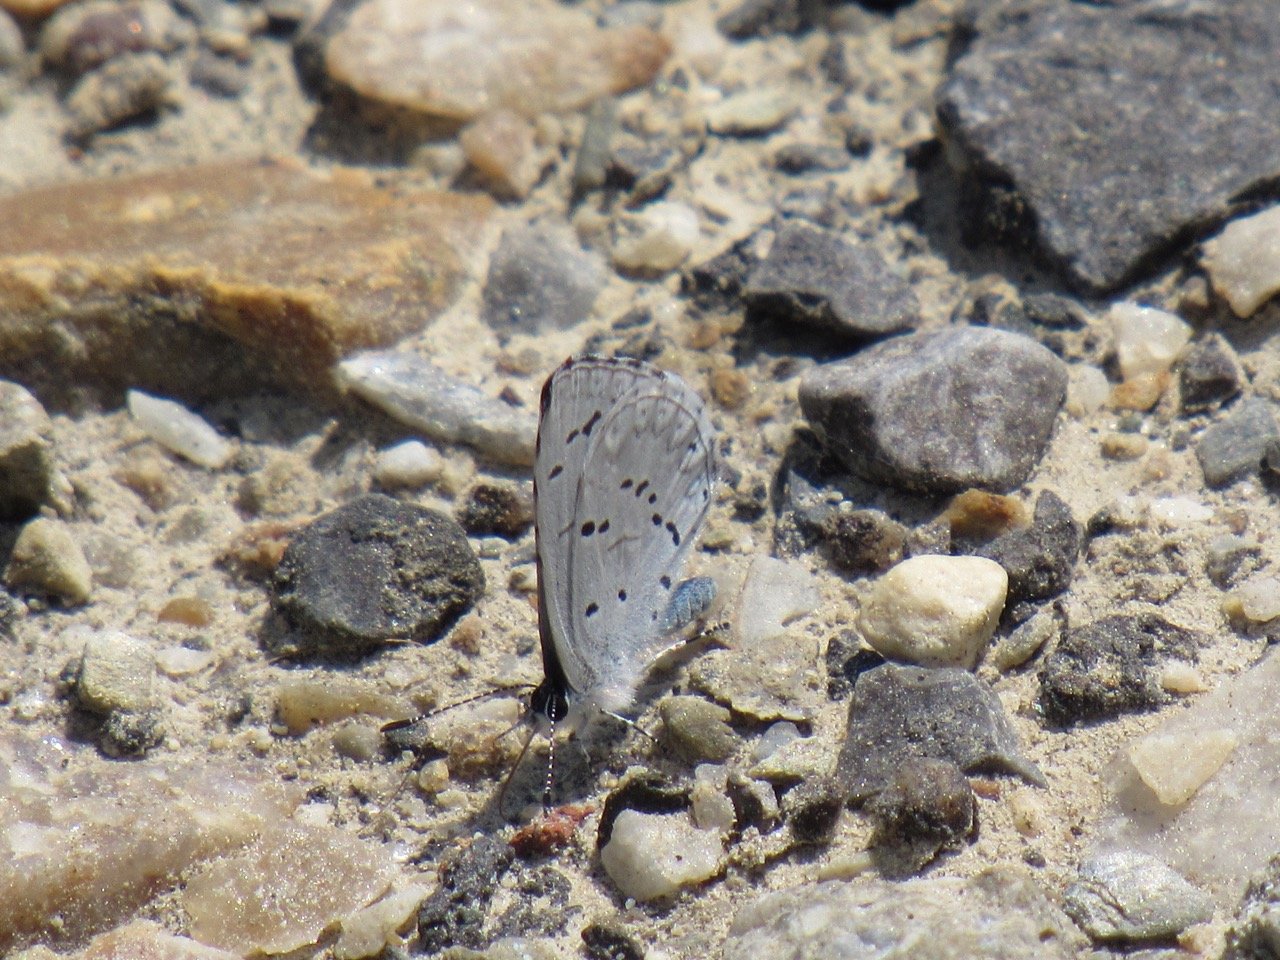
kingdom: Animalia
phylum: Arthropoda
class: Insecta
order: Lepidoptera
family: Lycaenidae
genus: Celastrina
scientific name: Celastrina lucia
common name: Northern Spring Azure
